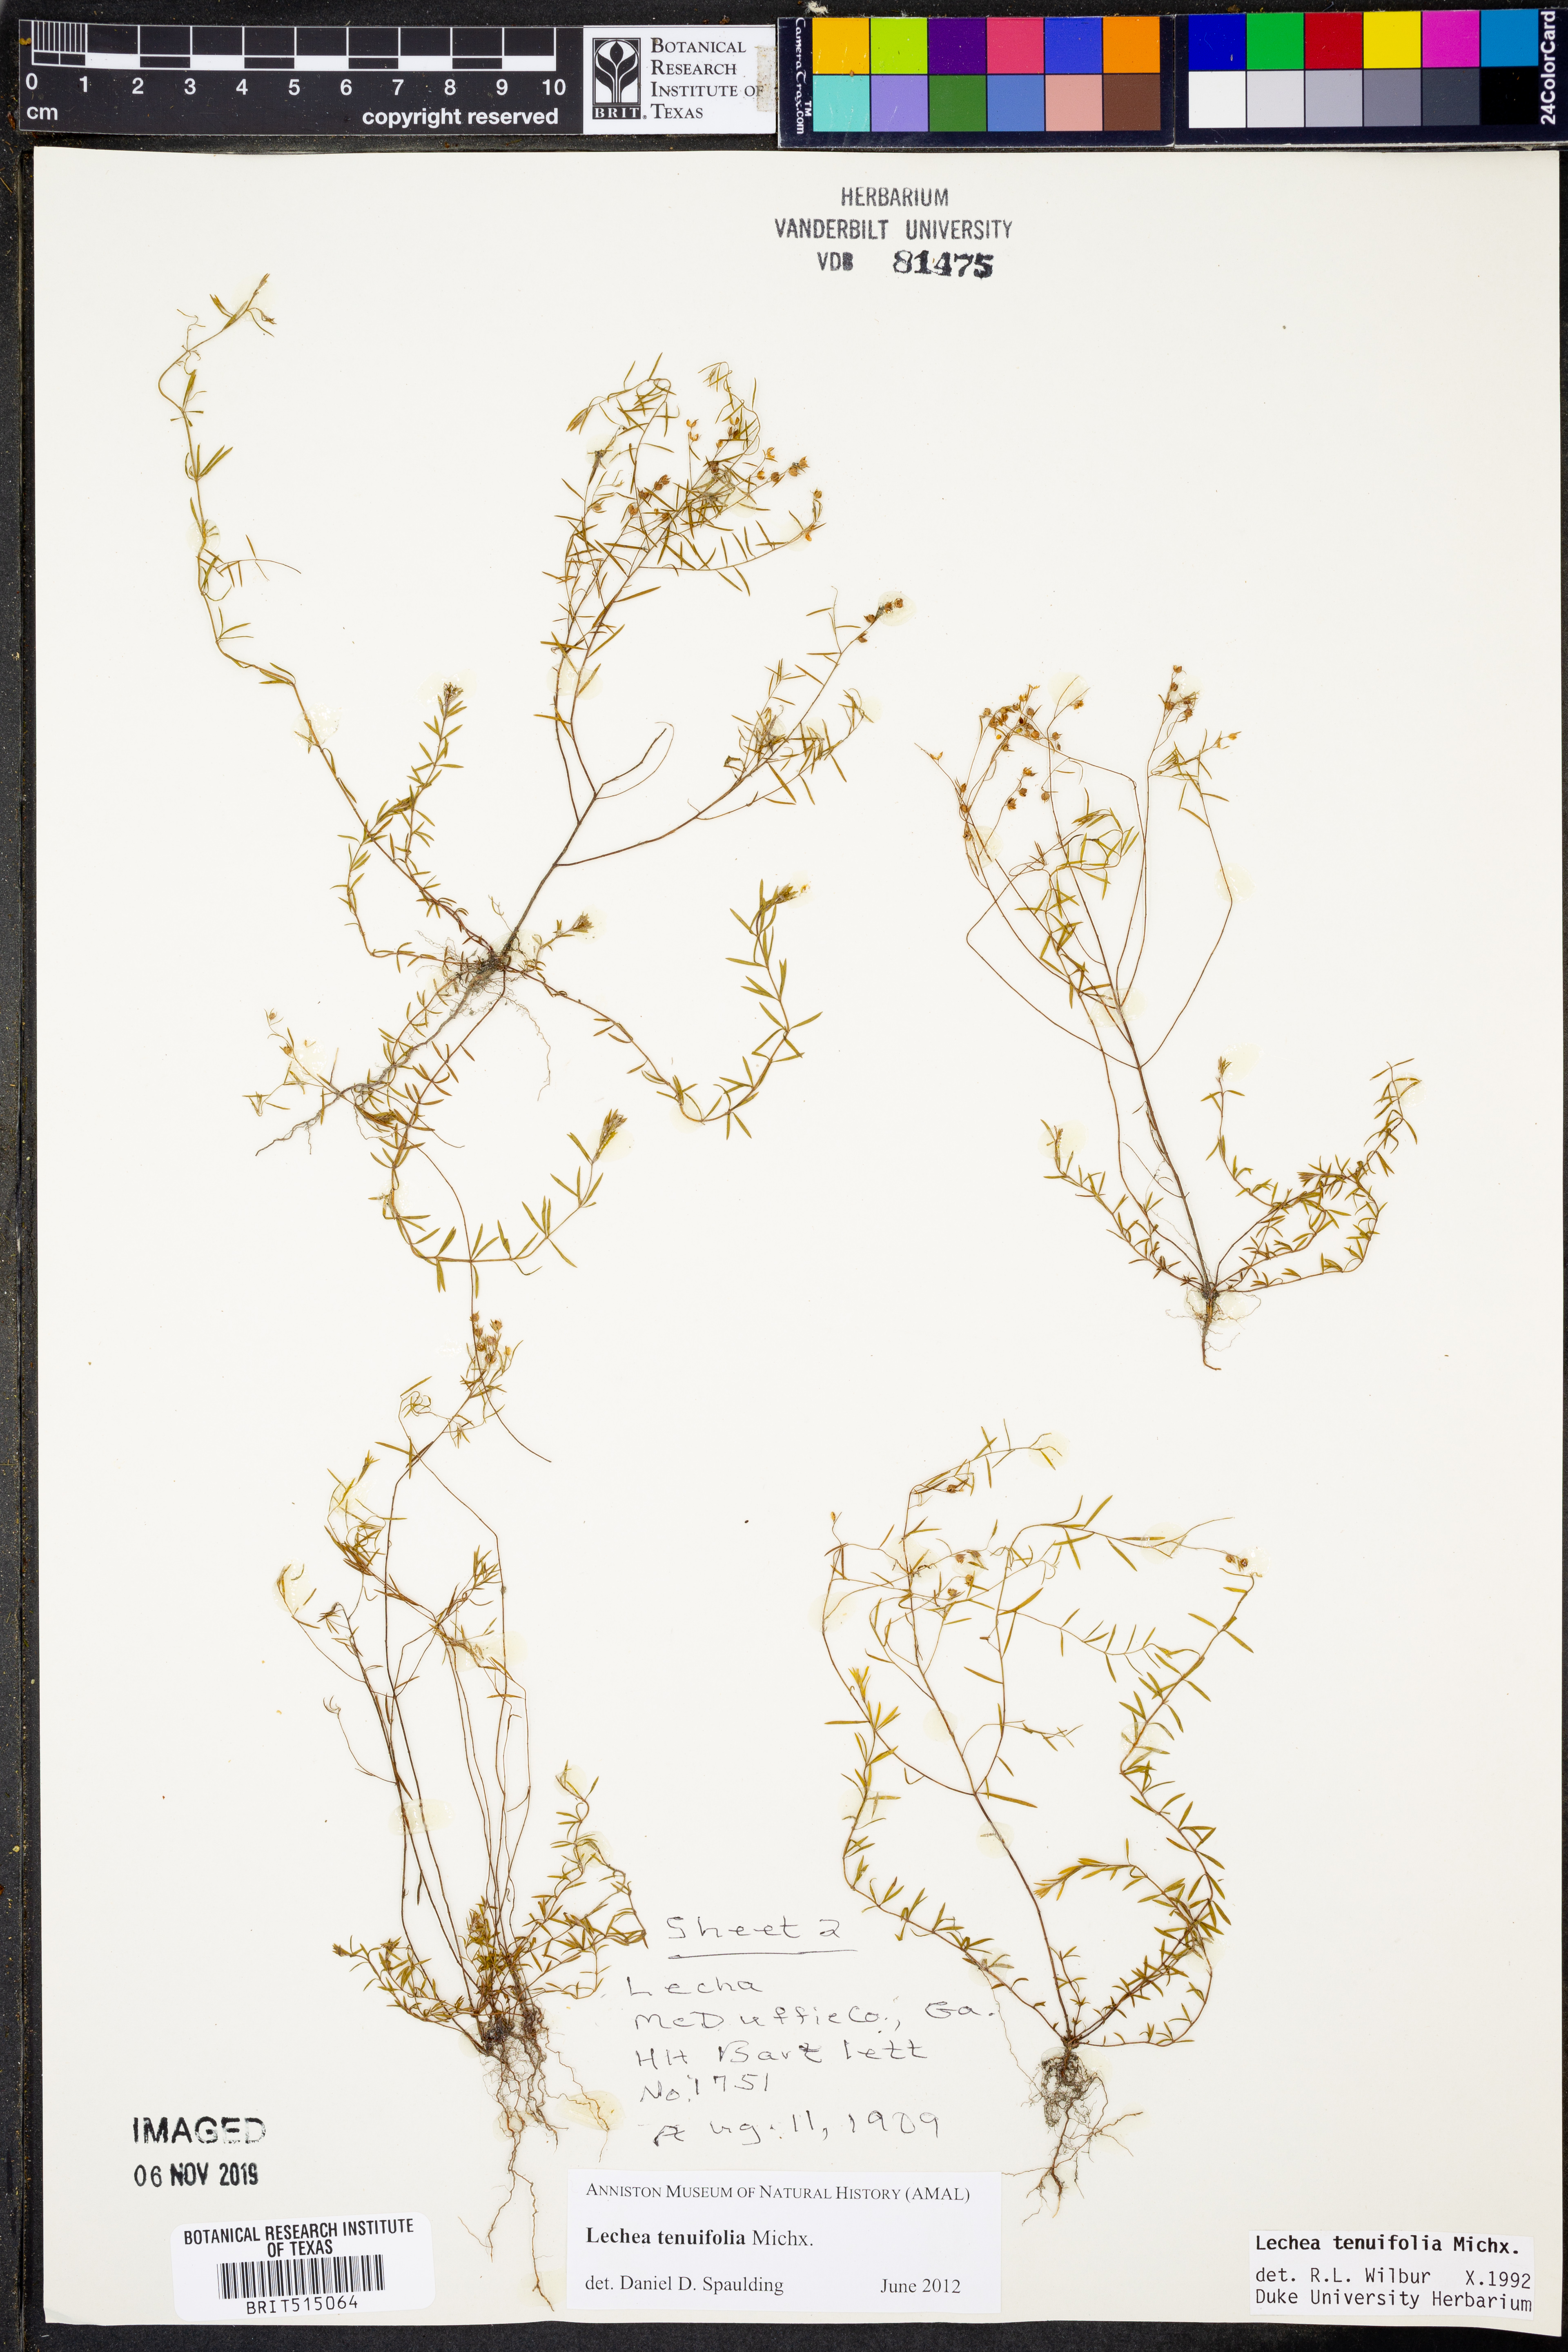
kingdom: Plantae
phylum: Tracheophyta
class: Magnoliopsida
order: Malvales
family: Cistaceae
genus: Lechea
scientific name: Lechea tenuifolia
